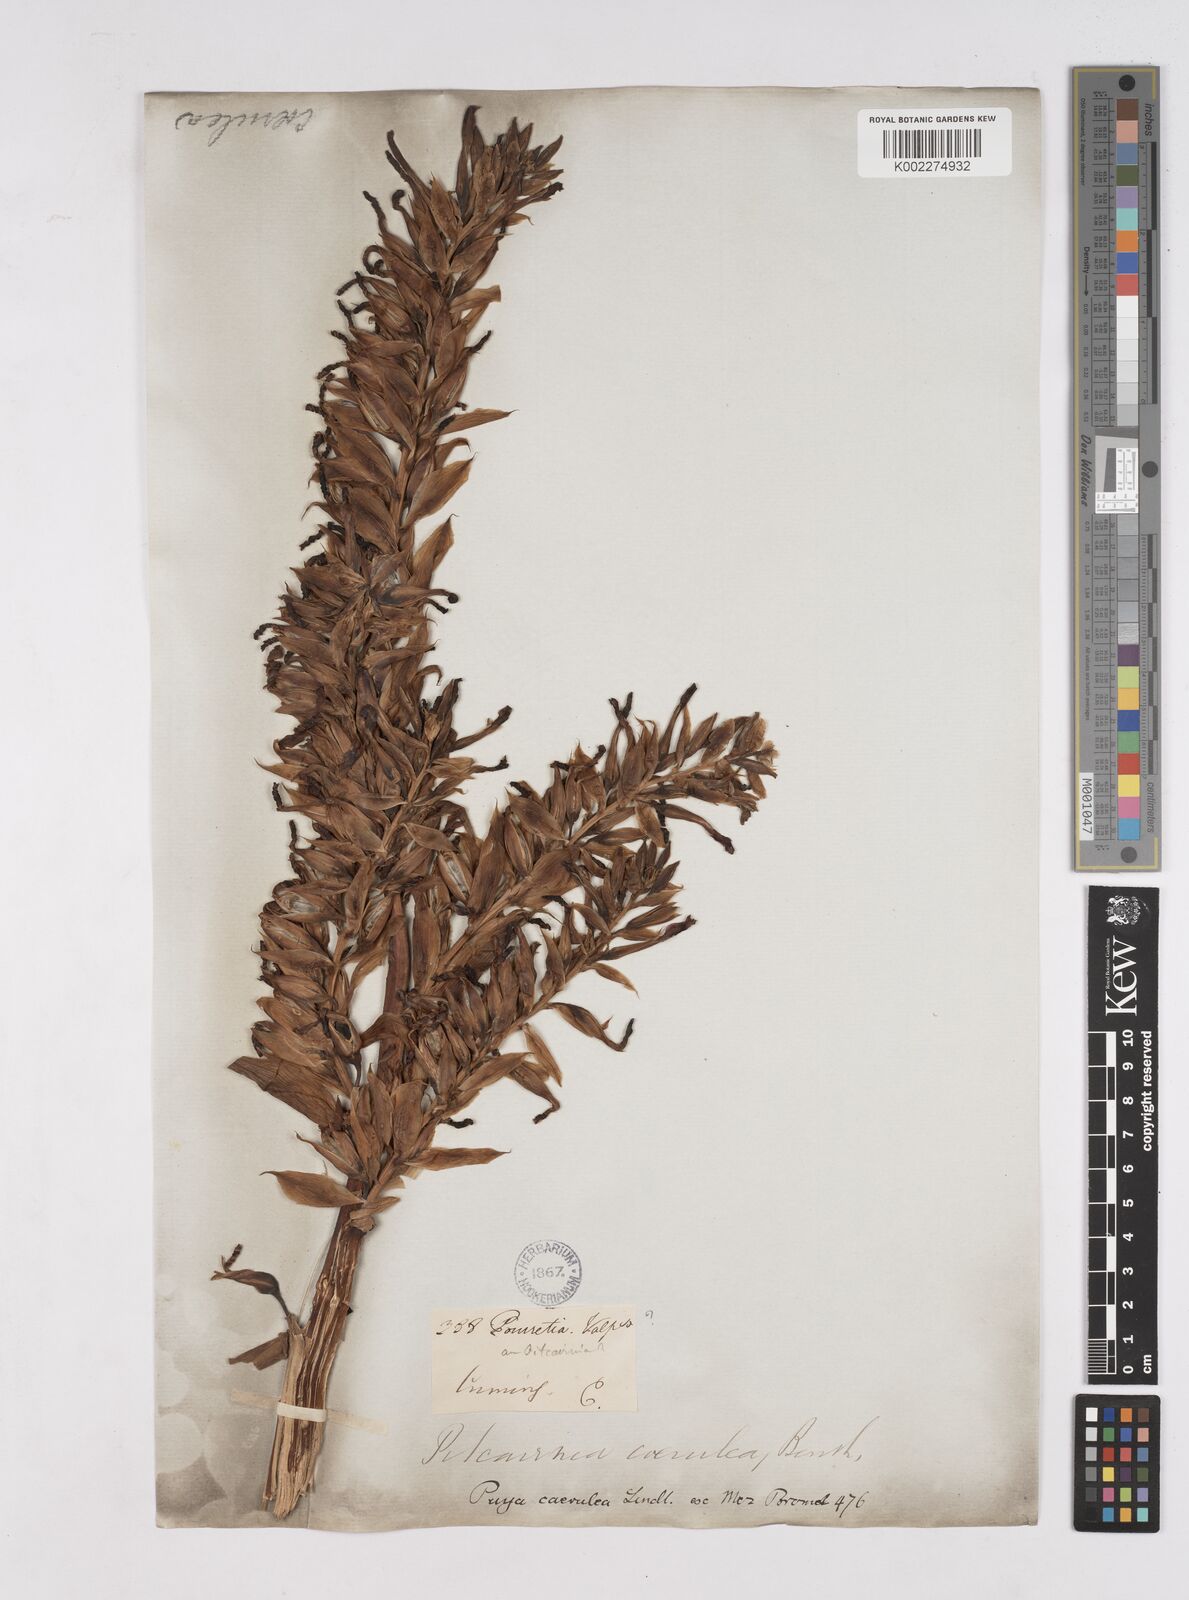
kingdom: Plantae
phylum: Tracheophyta
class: Liliopsida
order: Poales
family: Bromeliaceae
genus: Puya
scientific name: Puya coerulea
